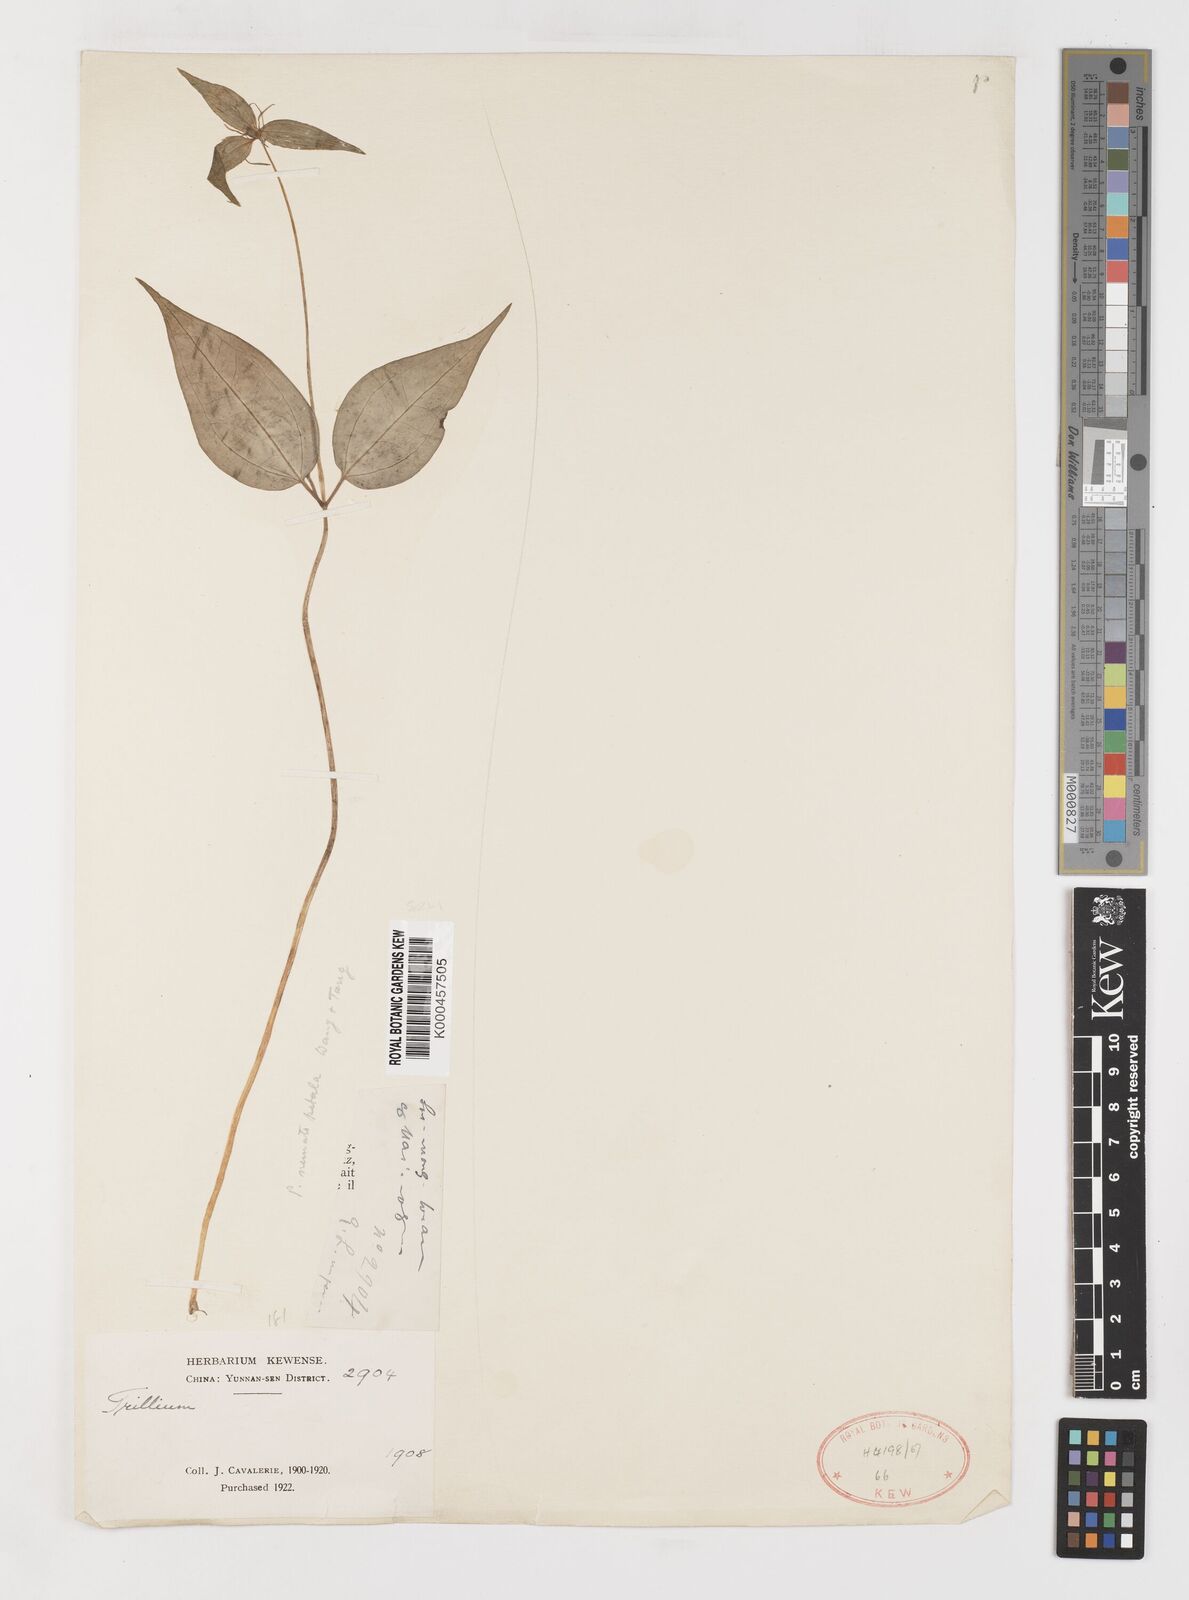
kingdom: Plantae
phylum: Tracheophyta
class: Liliopsida
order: Liliales
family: Melanthiaceae
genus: Paris
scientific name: Paris forrestii
